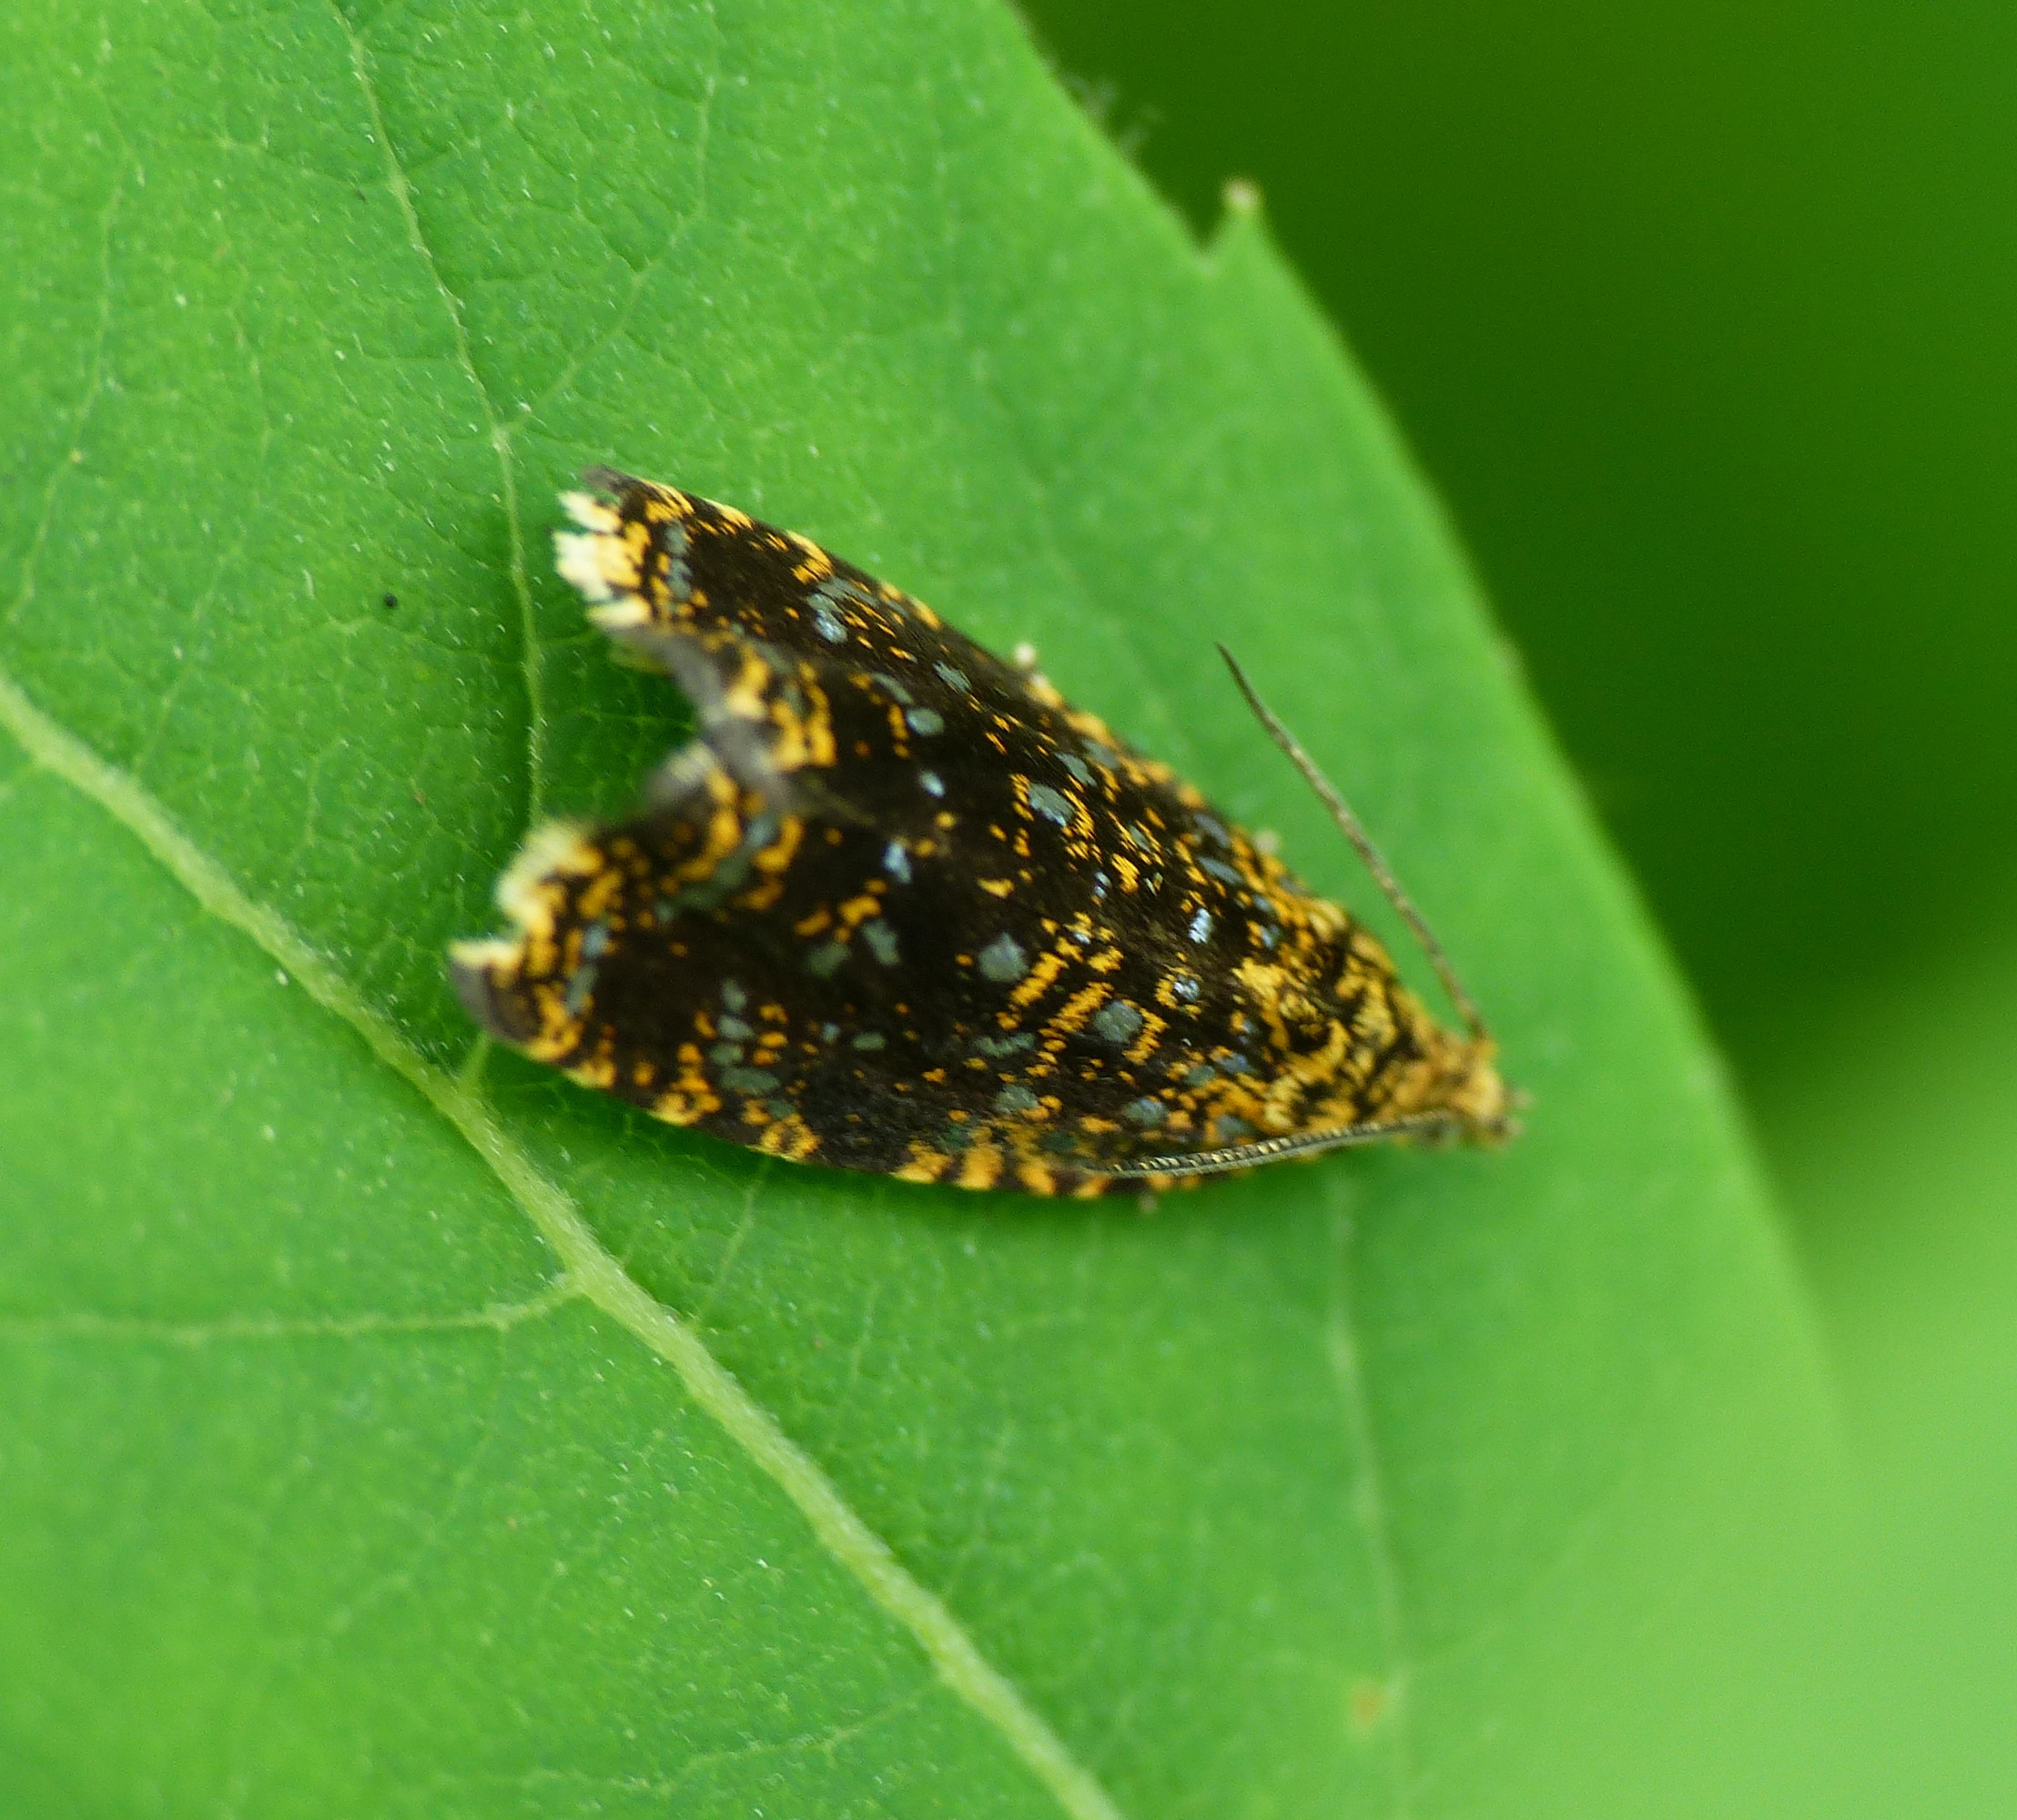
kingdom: Animalia
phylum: Arthropoda
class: Insecta
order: Lepidoptera
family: Tortricidae
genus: Phiaris
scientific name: Phiaris siderana
